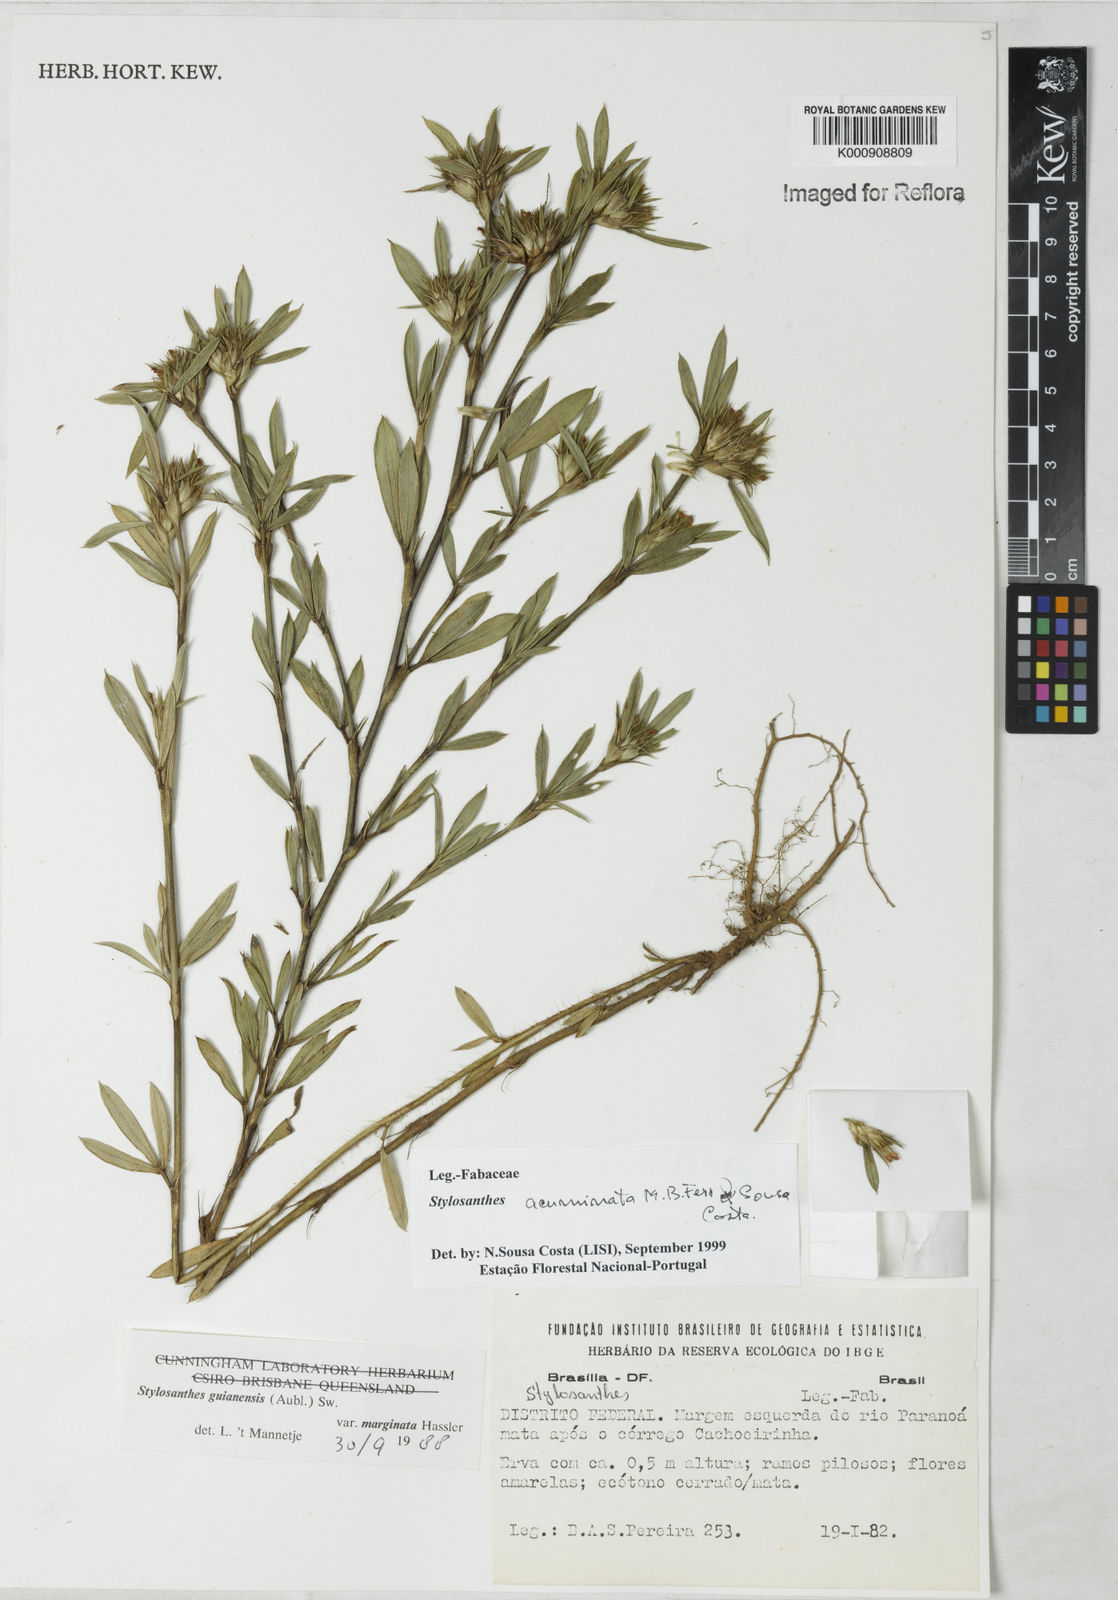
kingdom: Plantae
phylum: Tracheophyta
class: Magnoliopsida
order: Fabales
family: Fabaceae
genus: Stylosanthes
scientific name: Stylosanthes guianensis
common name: Pencil flower
